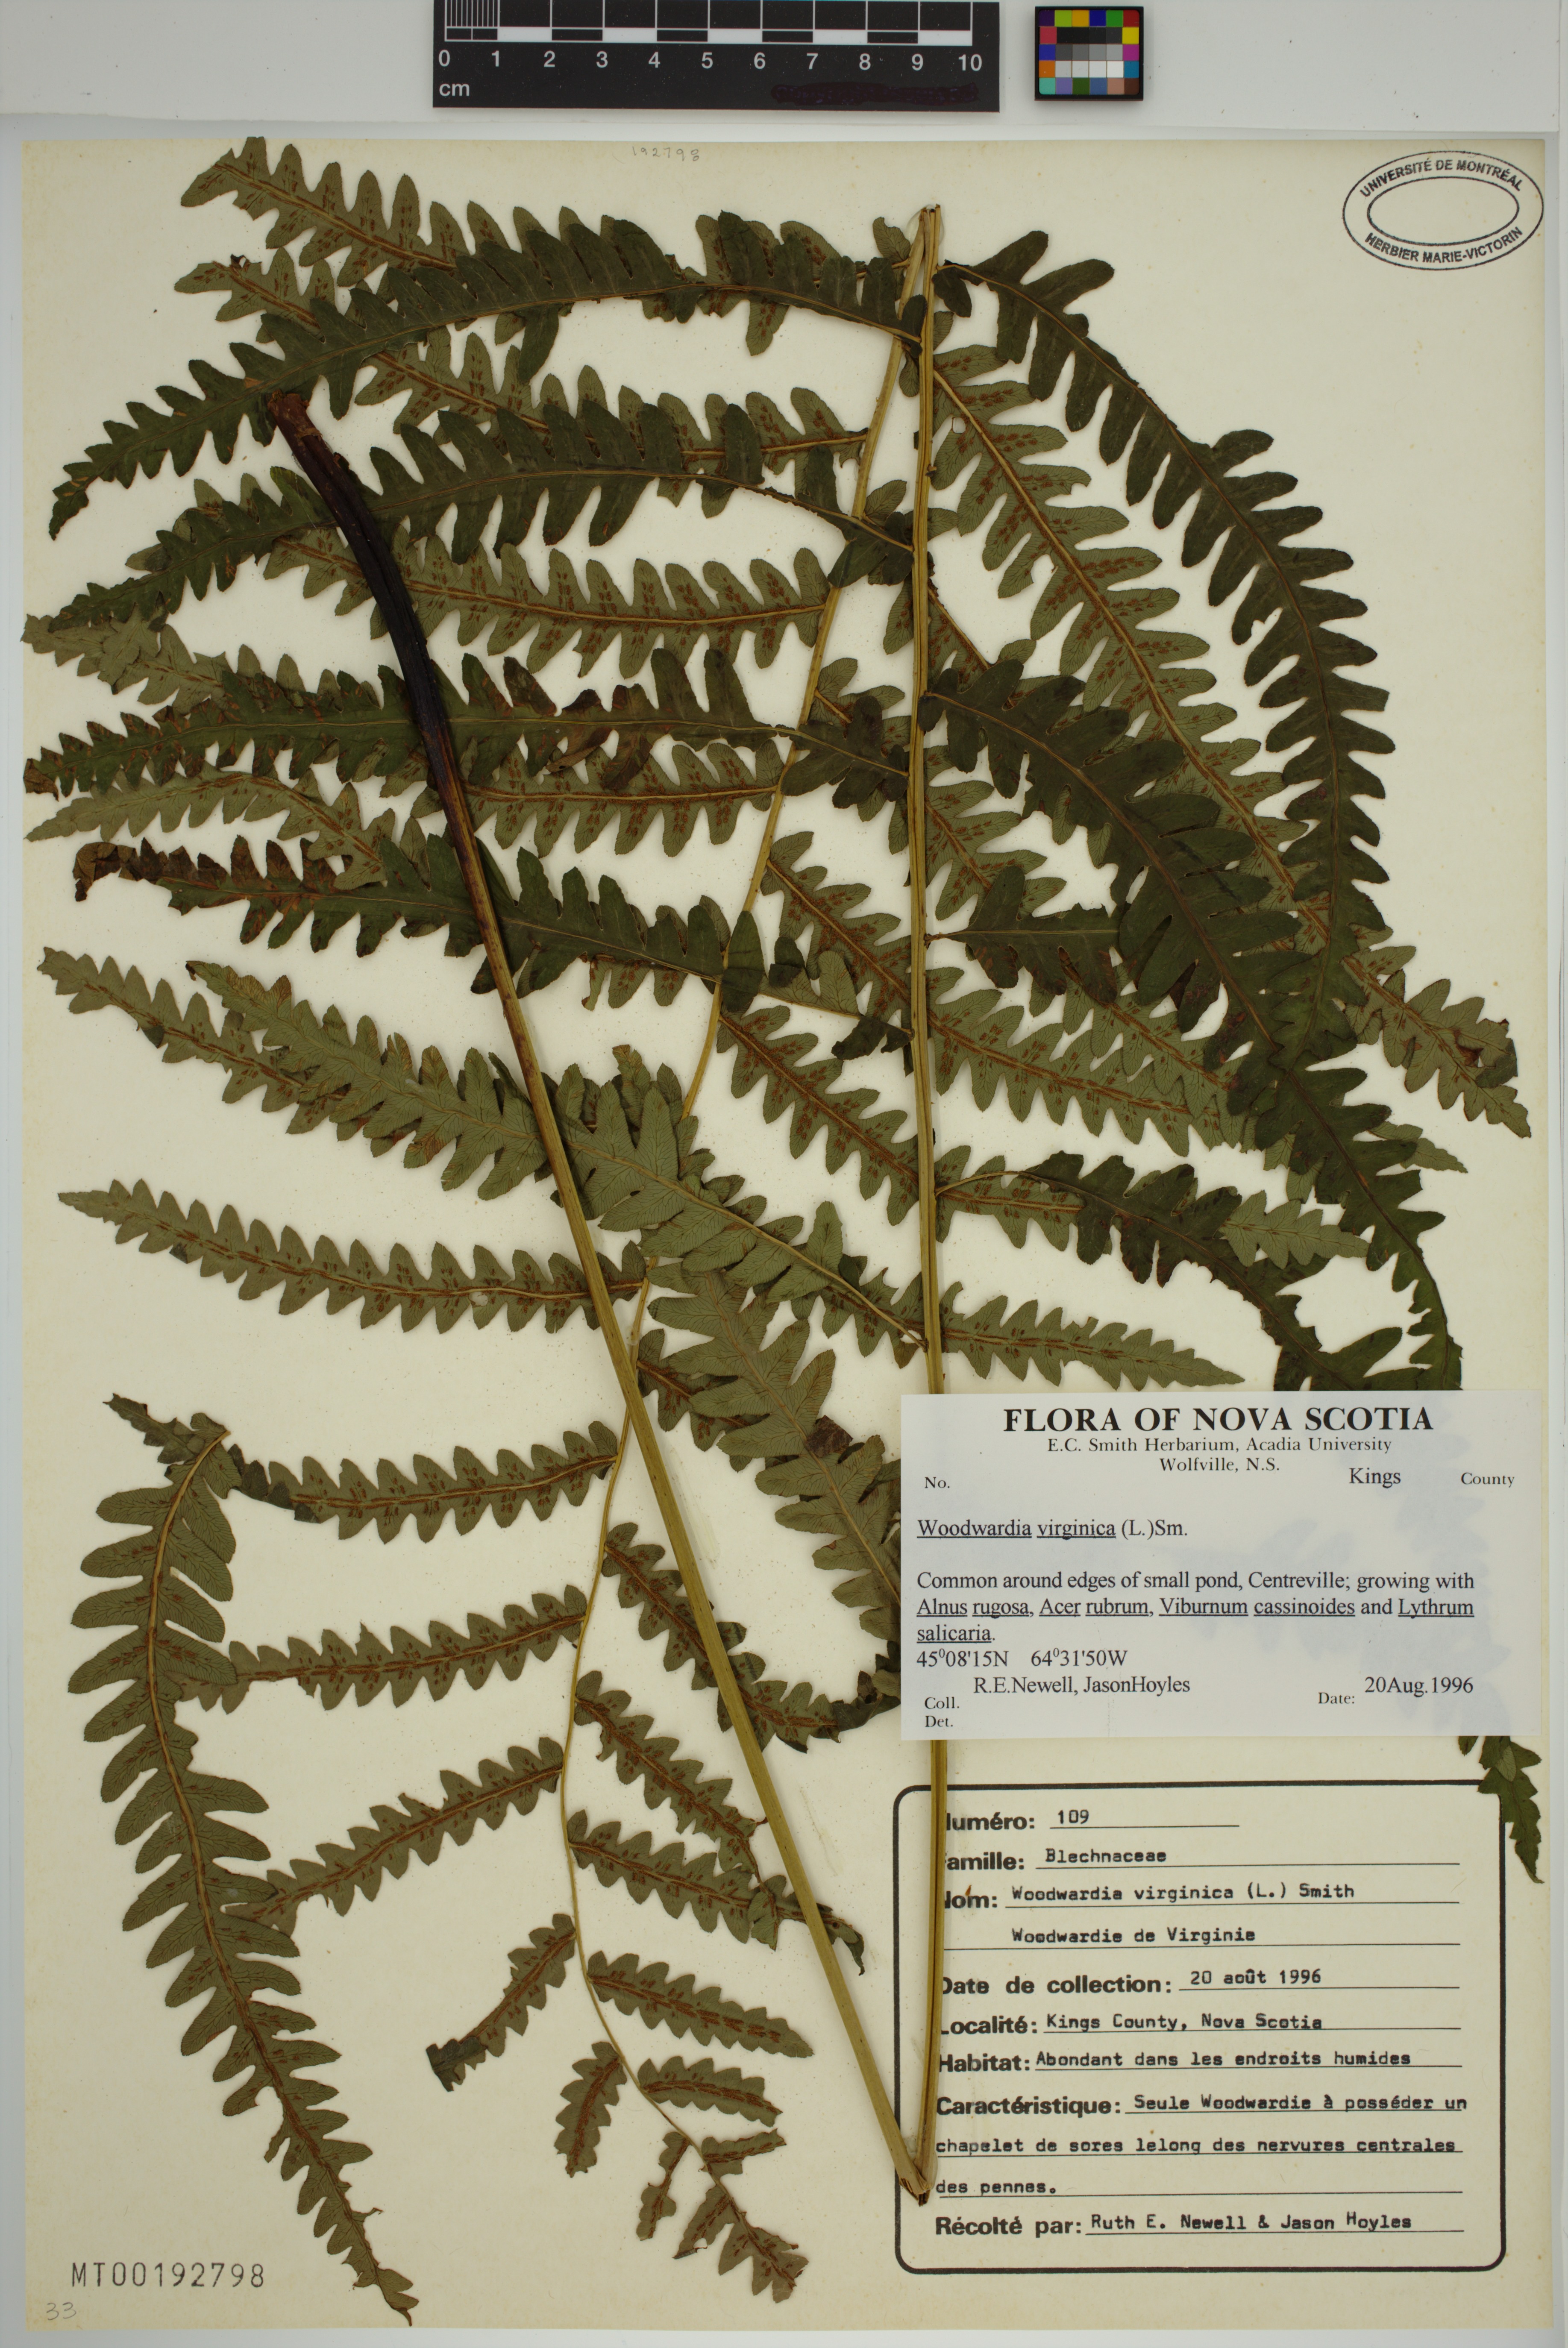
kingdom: Plantae
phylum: Tracheophyta
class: Polypodiopsida
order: Polypodiales
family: Blechnaceae
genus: Anchistea
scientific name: Anchistea virginica
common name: Virginia chain fern
